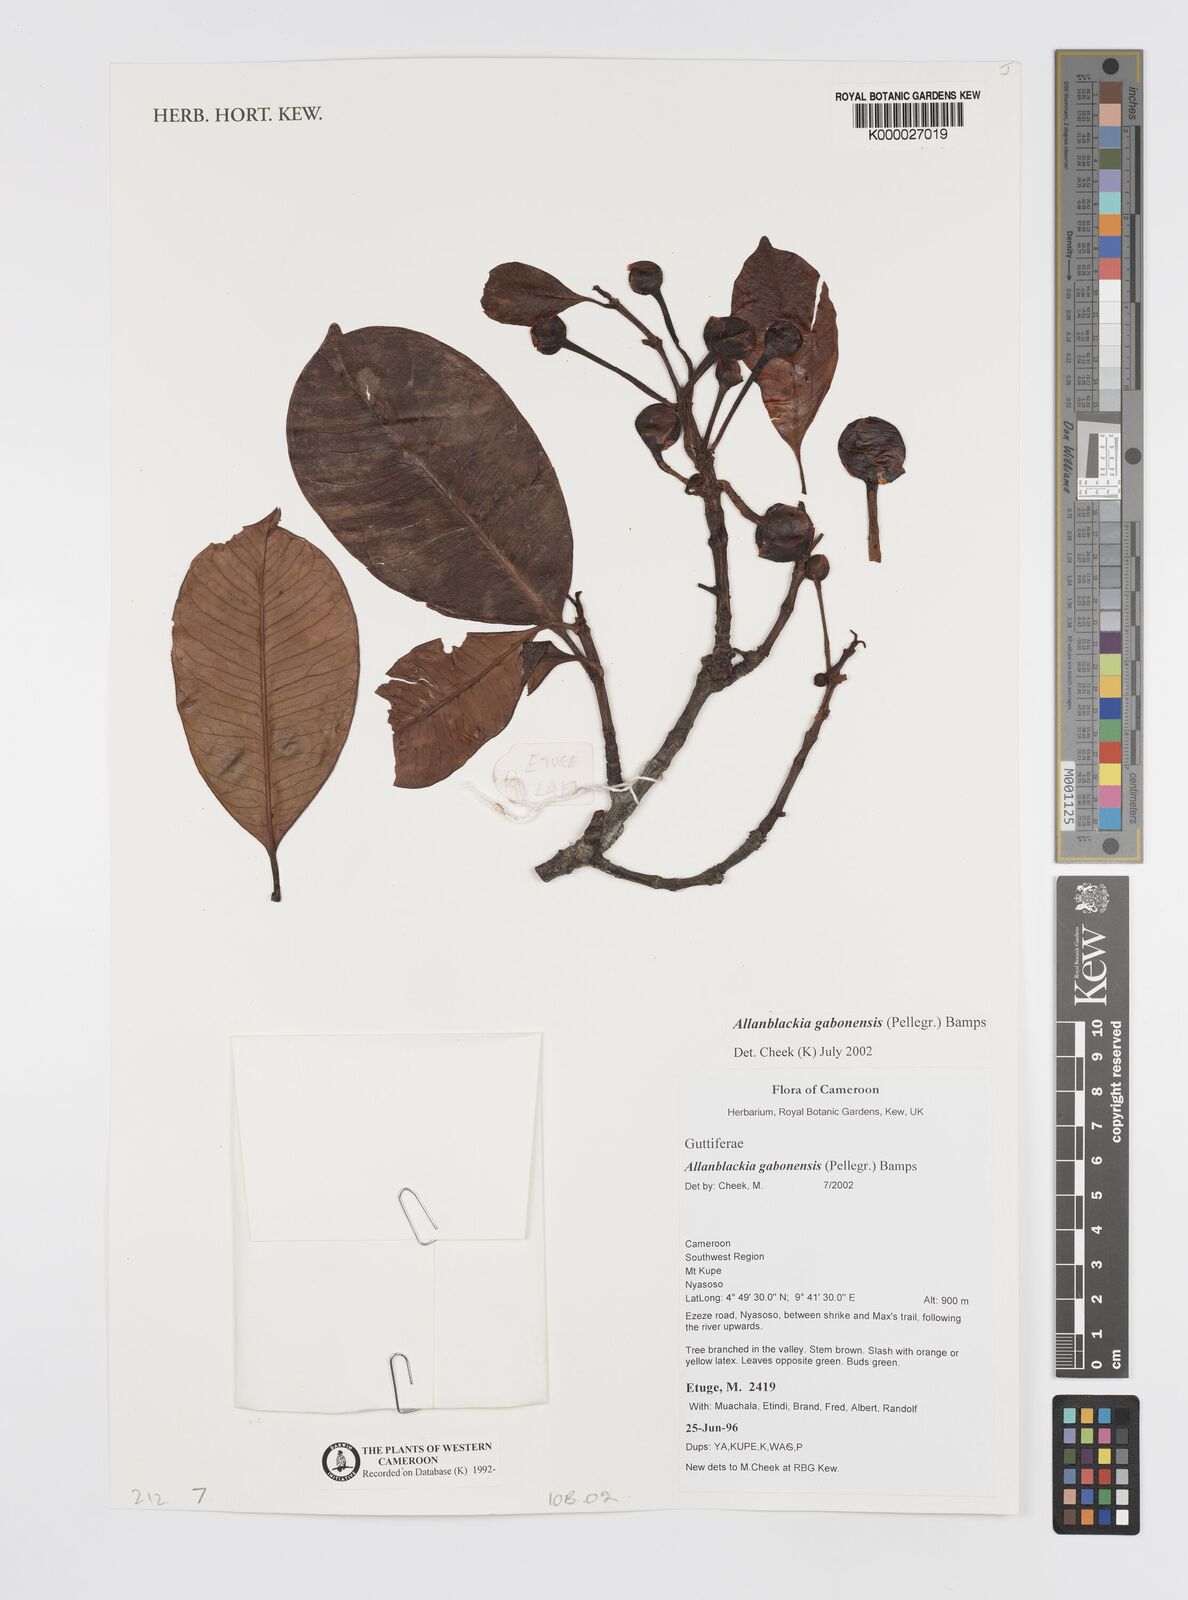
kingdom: Plantae
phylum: Tracheophyta
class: Magnoliopsida
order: Malpighiales
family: Clusiaceae
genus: Allanblackia
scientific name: Allanblackia gabonensis
